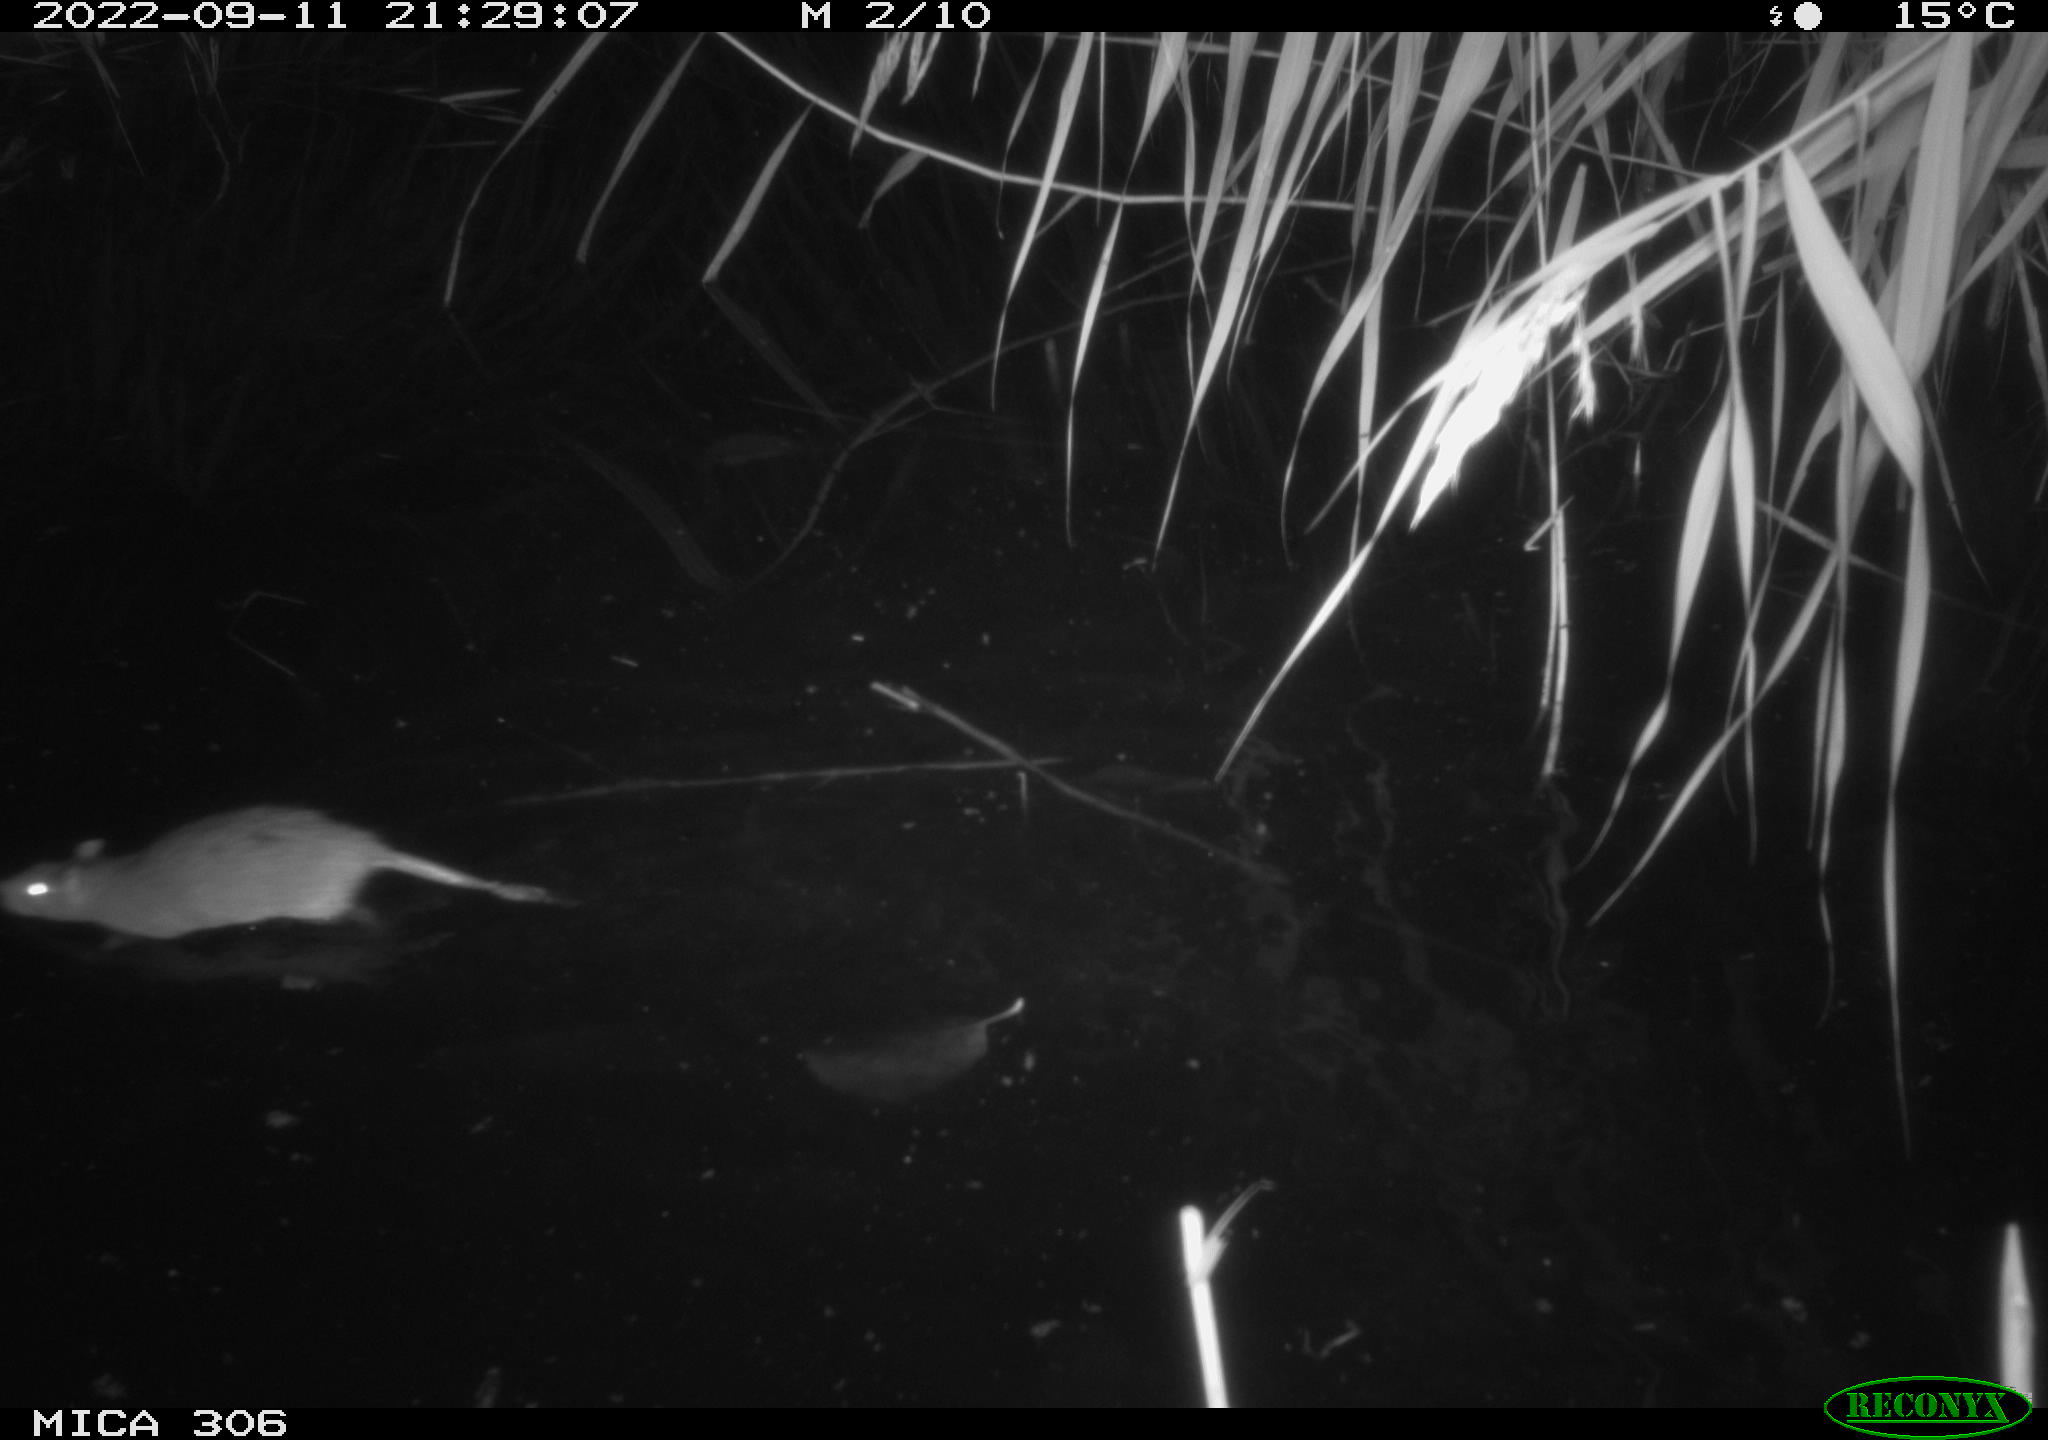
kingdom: Animalia
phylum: Chordata
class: Mammalia
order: Rodentia
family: Muridae
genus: Rattus
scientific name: Rattus norvegicus
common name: Brown rat
